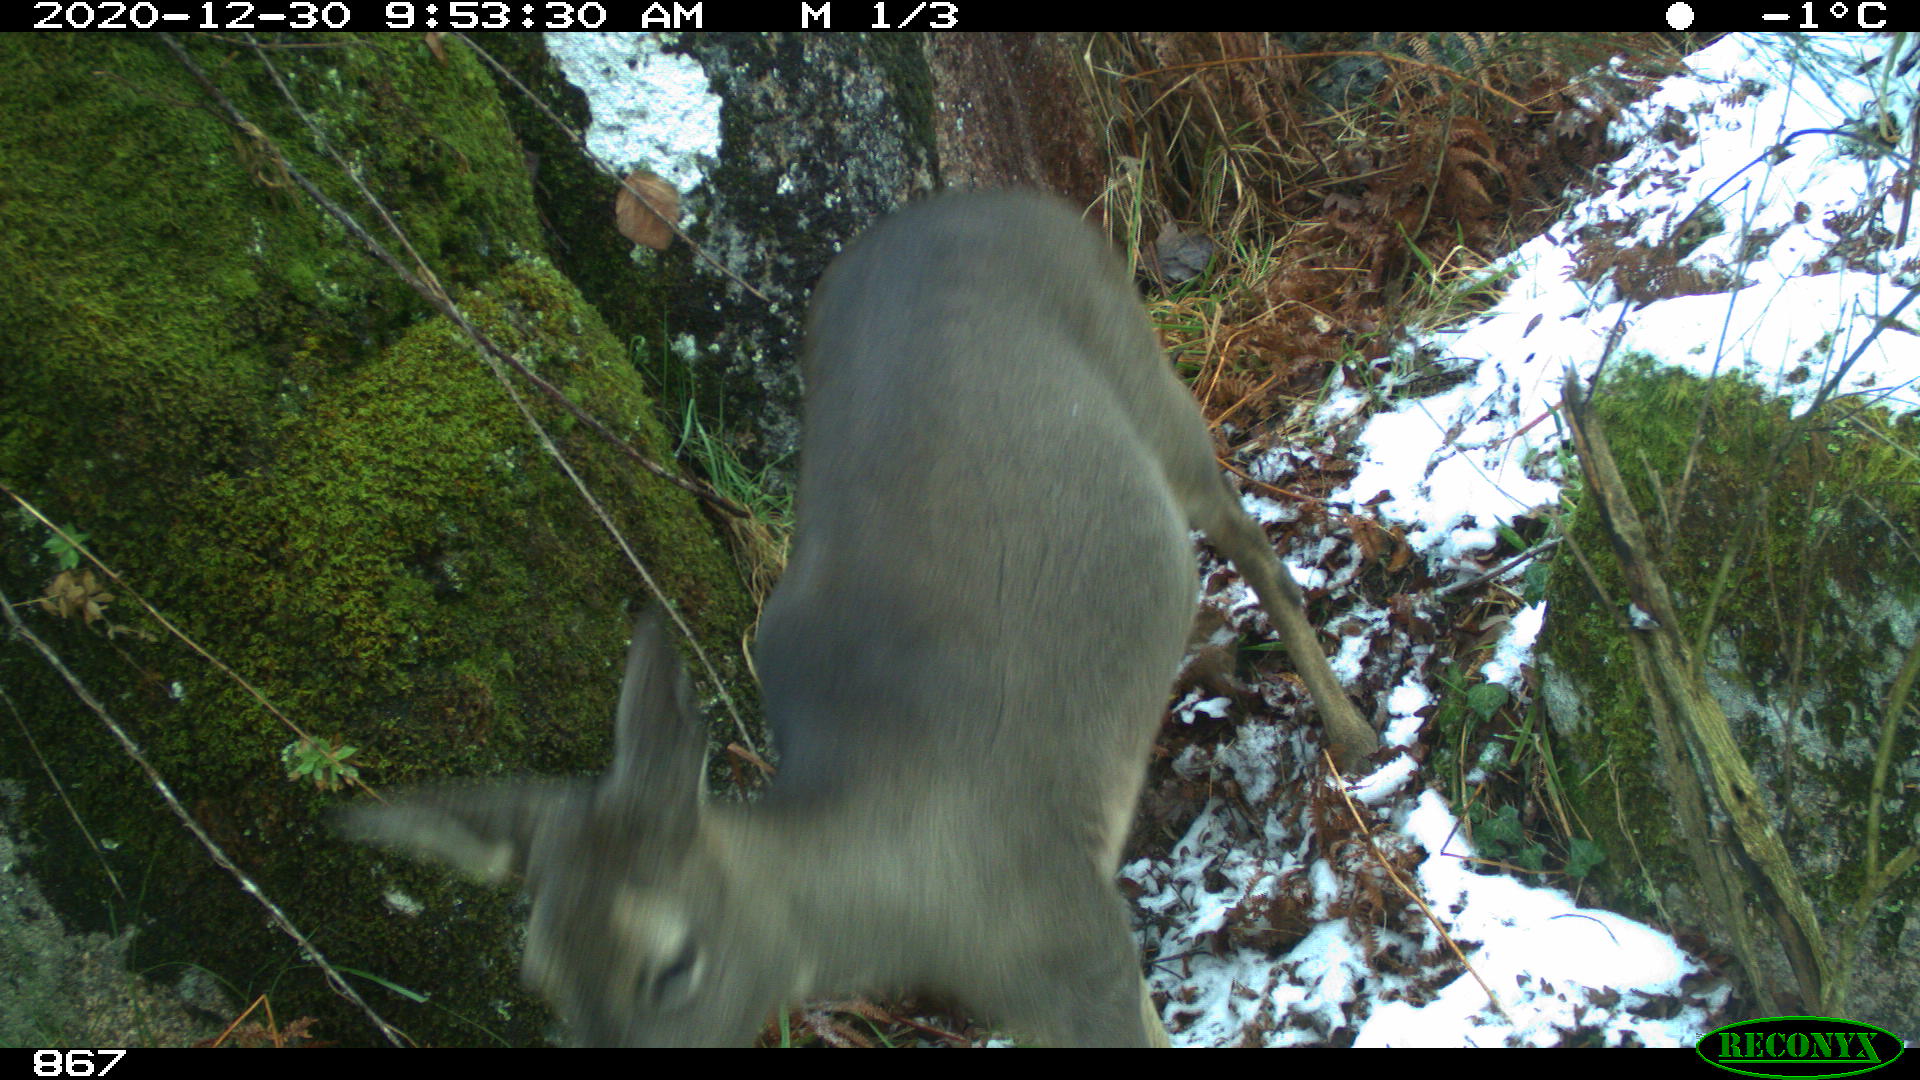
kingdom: Animalia
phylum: Chordata
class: Mammalia
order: Artiodactyla
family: Cervidae
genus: Capreolus
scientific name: Capreolus capreolus
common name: Western roe deer
